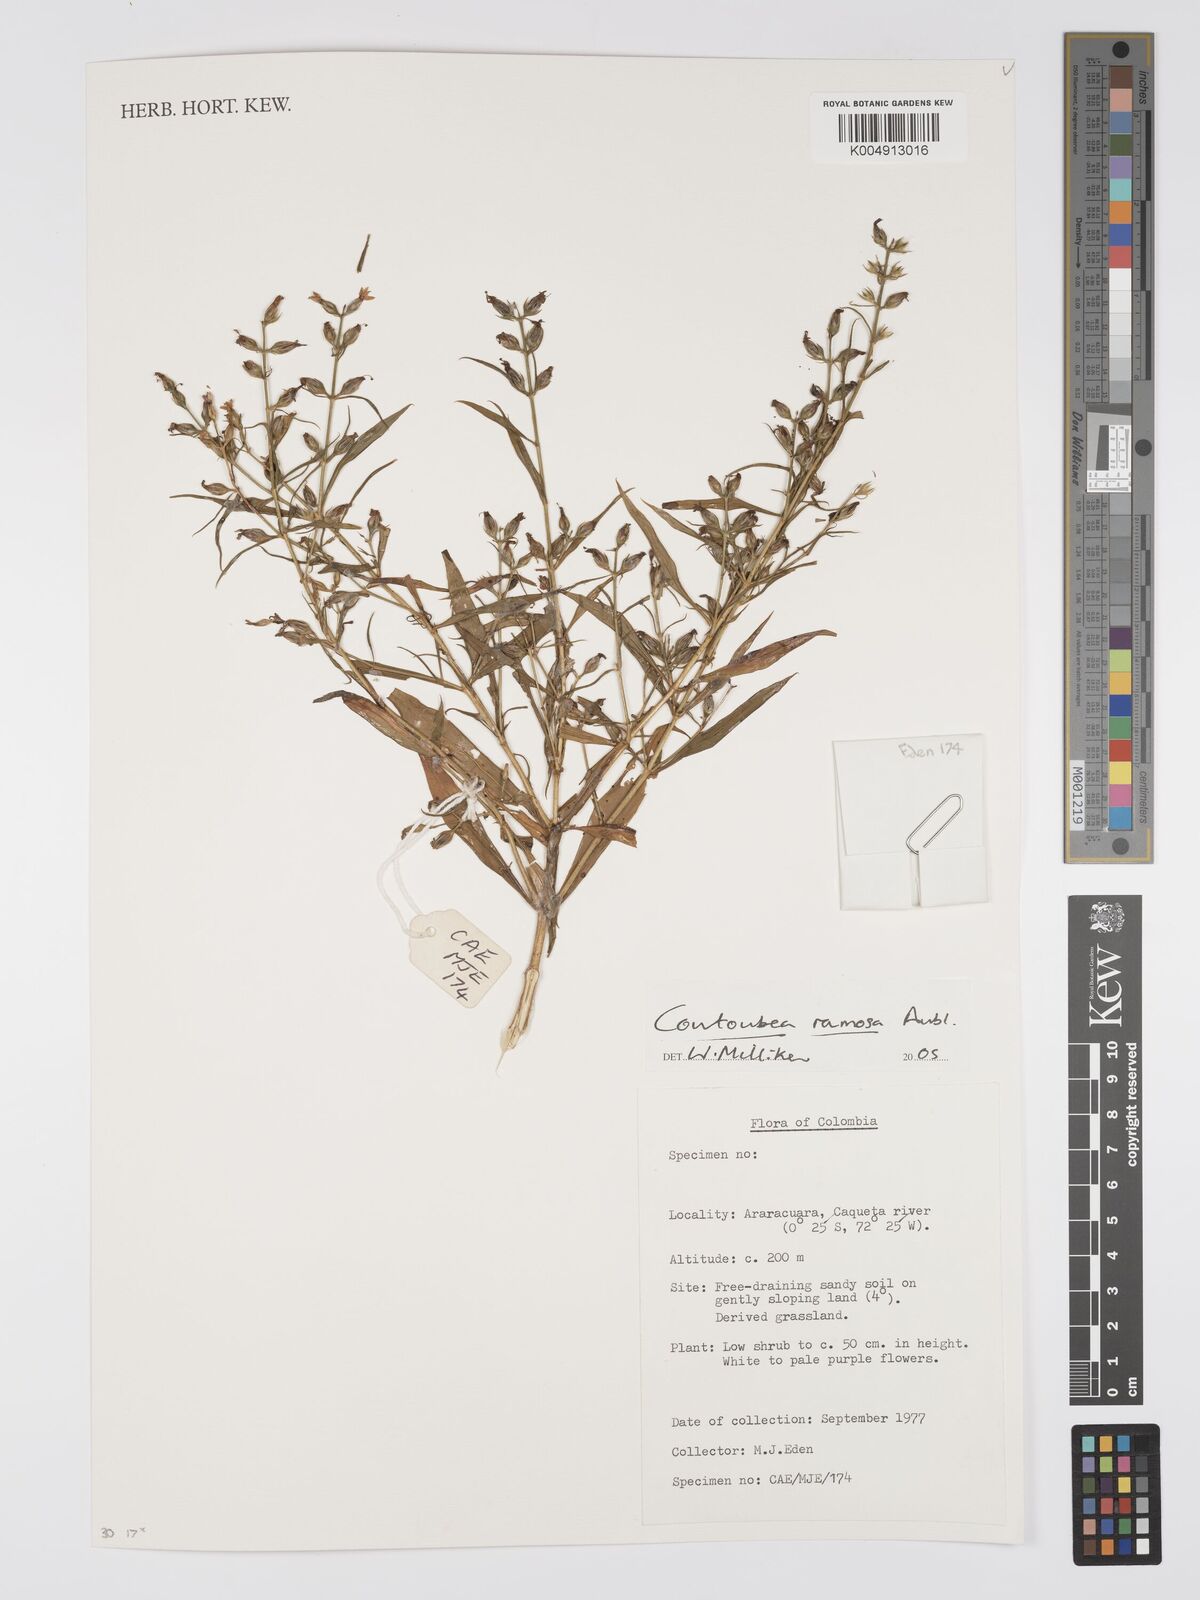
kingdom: Plantae
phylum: Tracheophyta
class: Magnoliopsida
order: Gentianales
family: Gentianaceae
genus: Coutoubea
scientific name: Coutoubea ramosa
